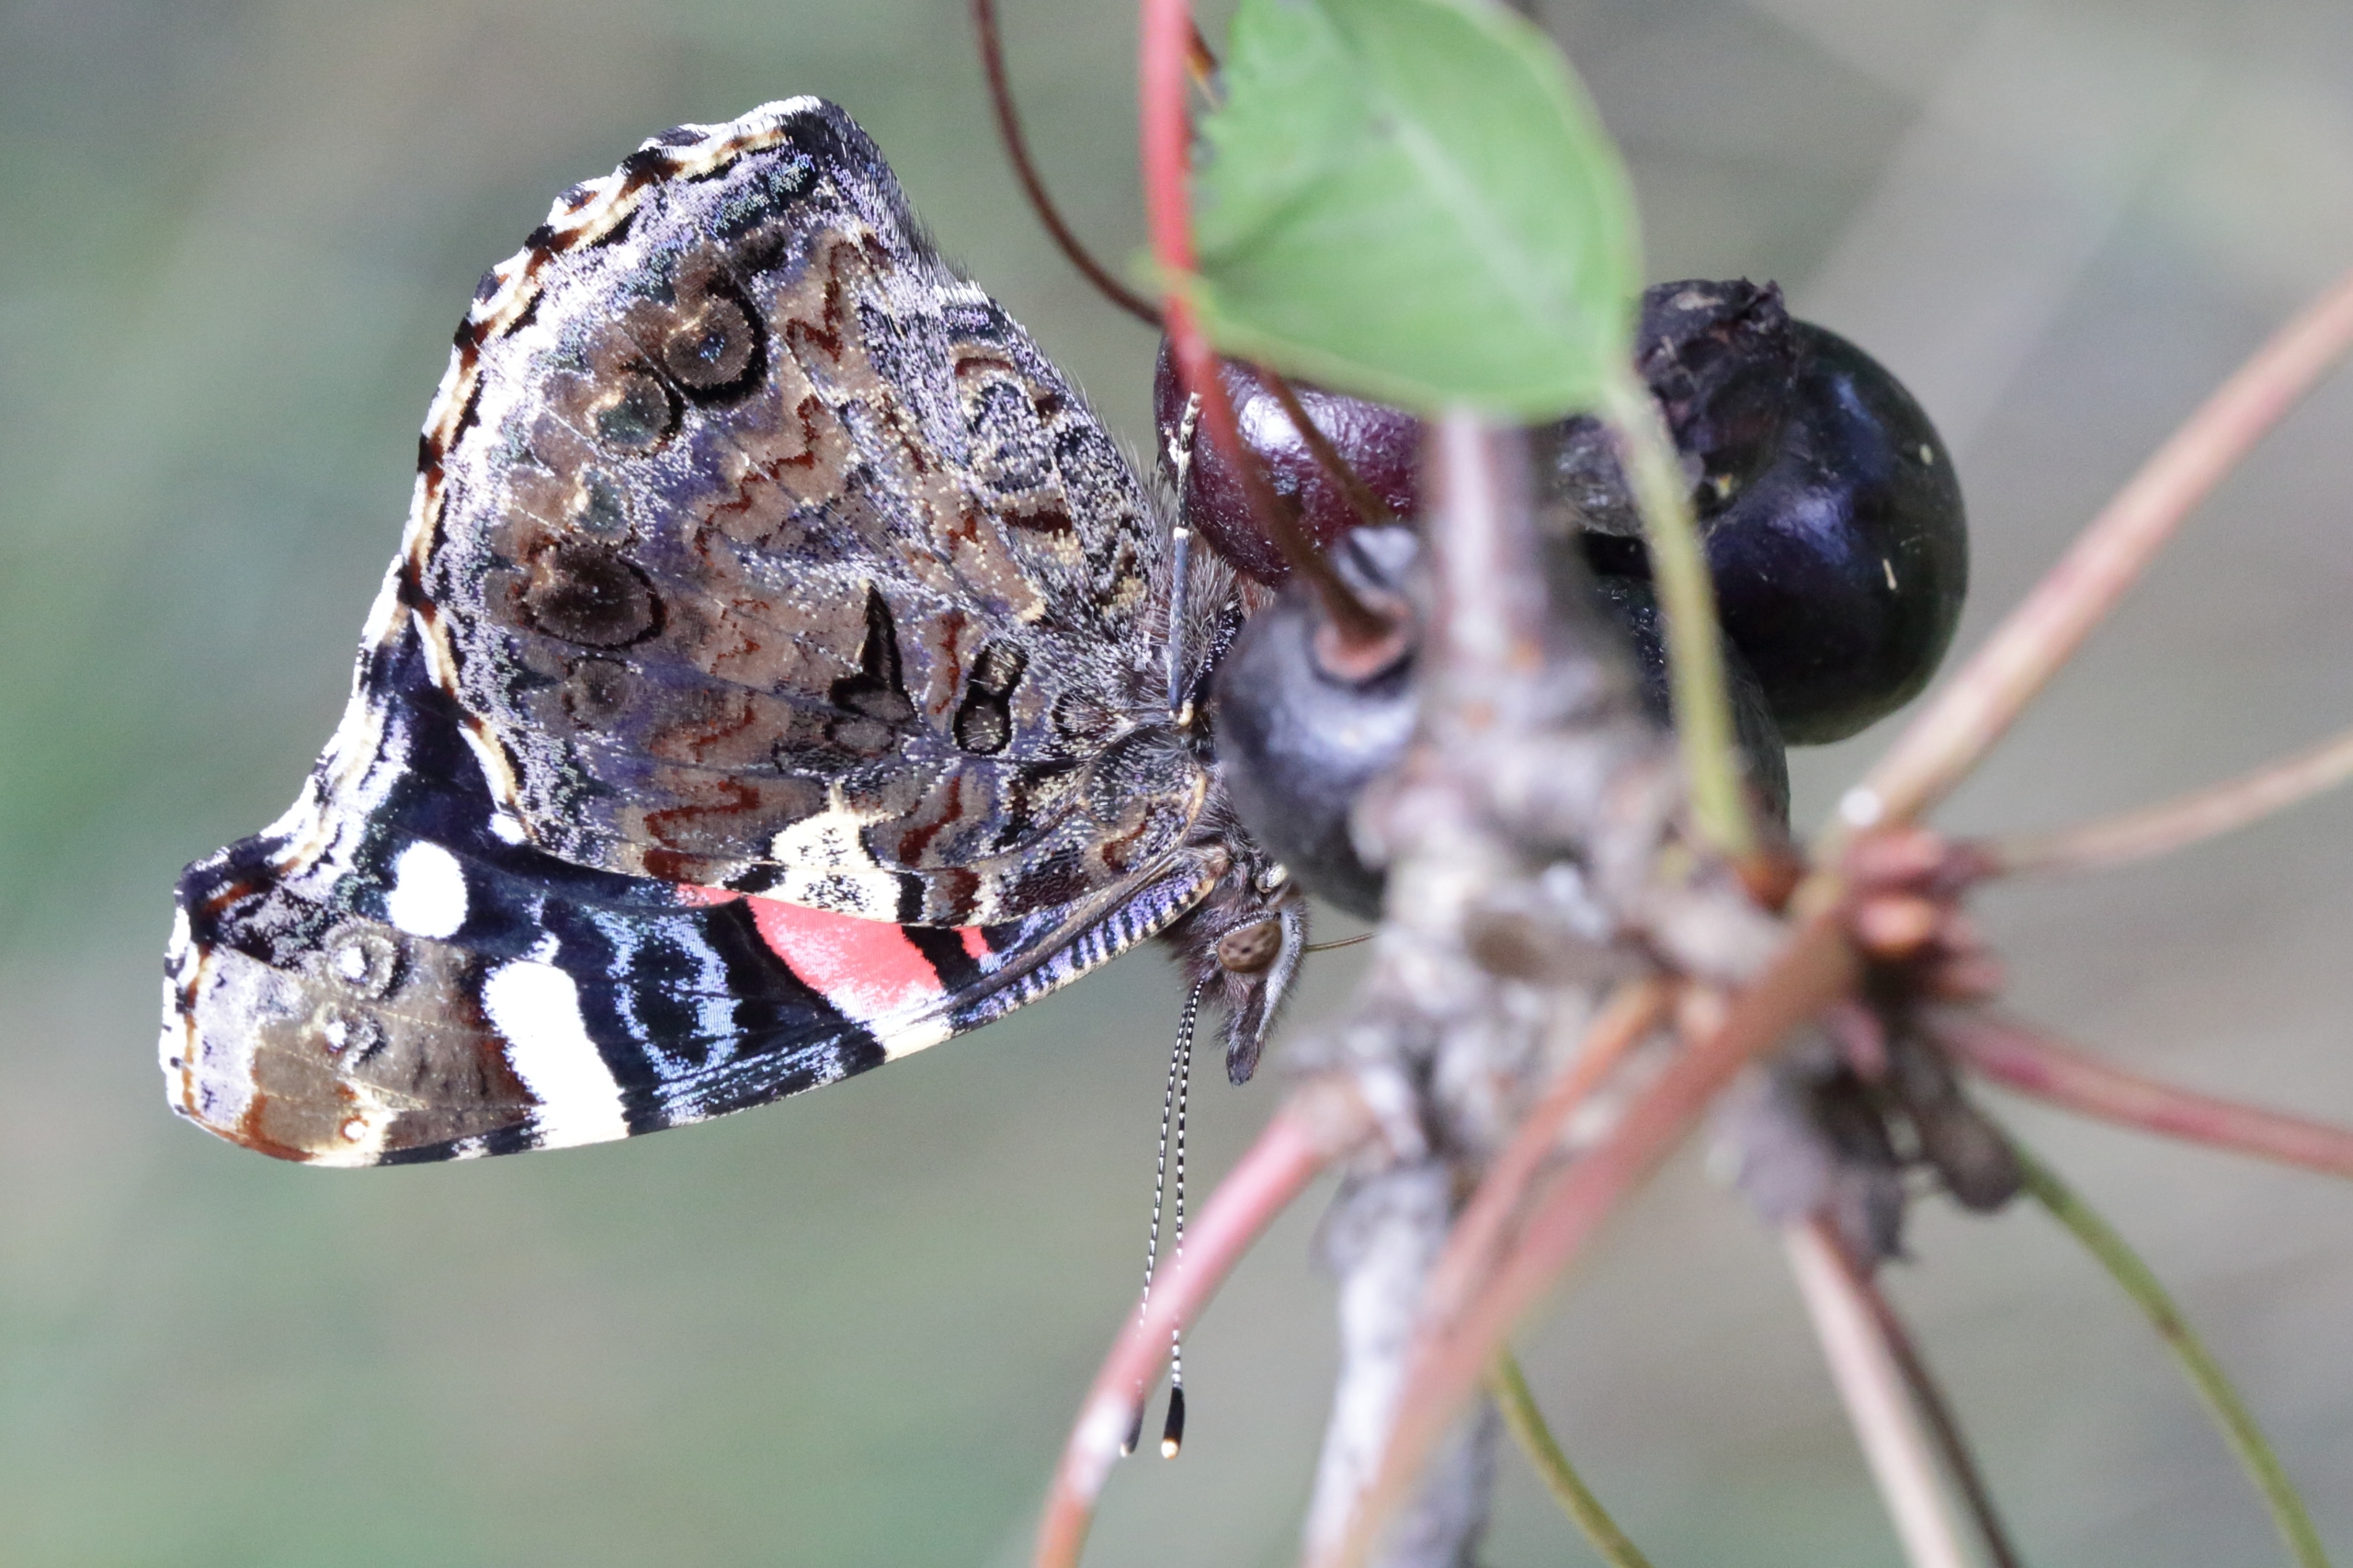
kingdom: Animalia
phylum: Arthropoda
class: Insecta
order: Lepidoptera
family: Nymphalidae
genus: Vanessa
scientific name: Vanessa atalanta
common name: Admiral
